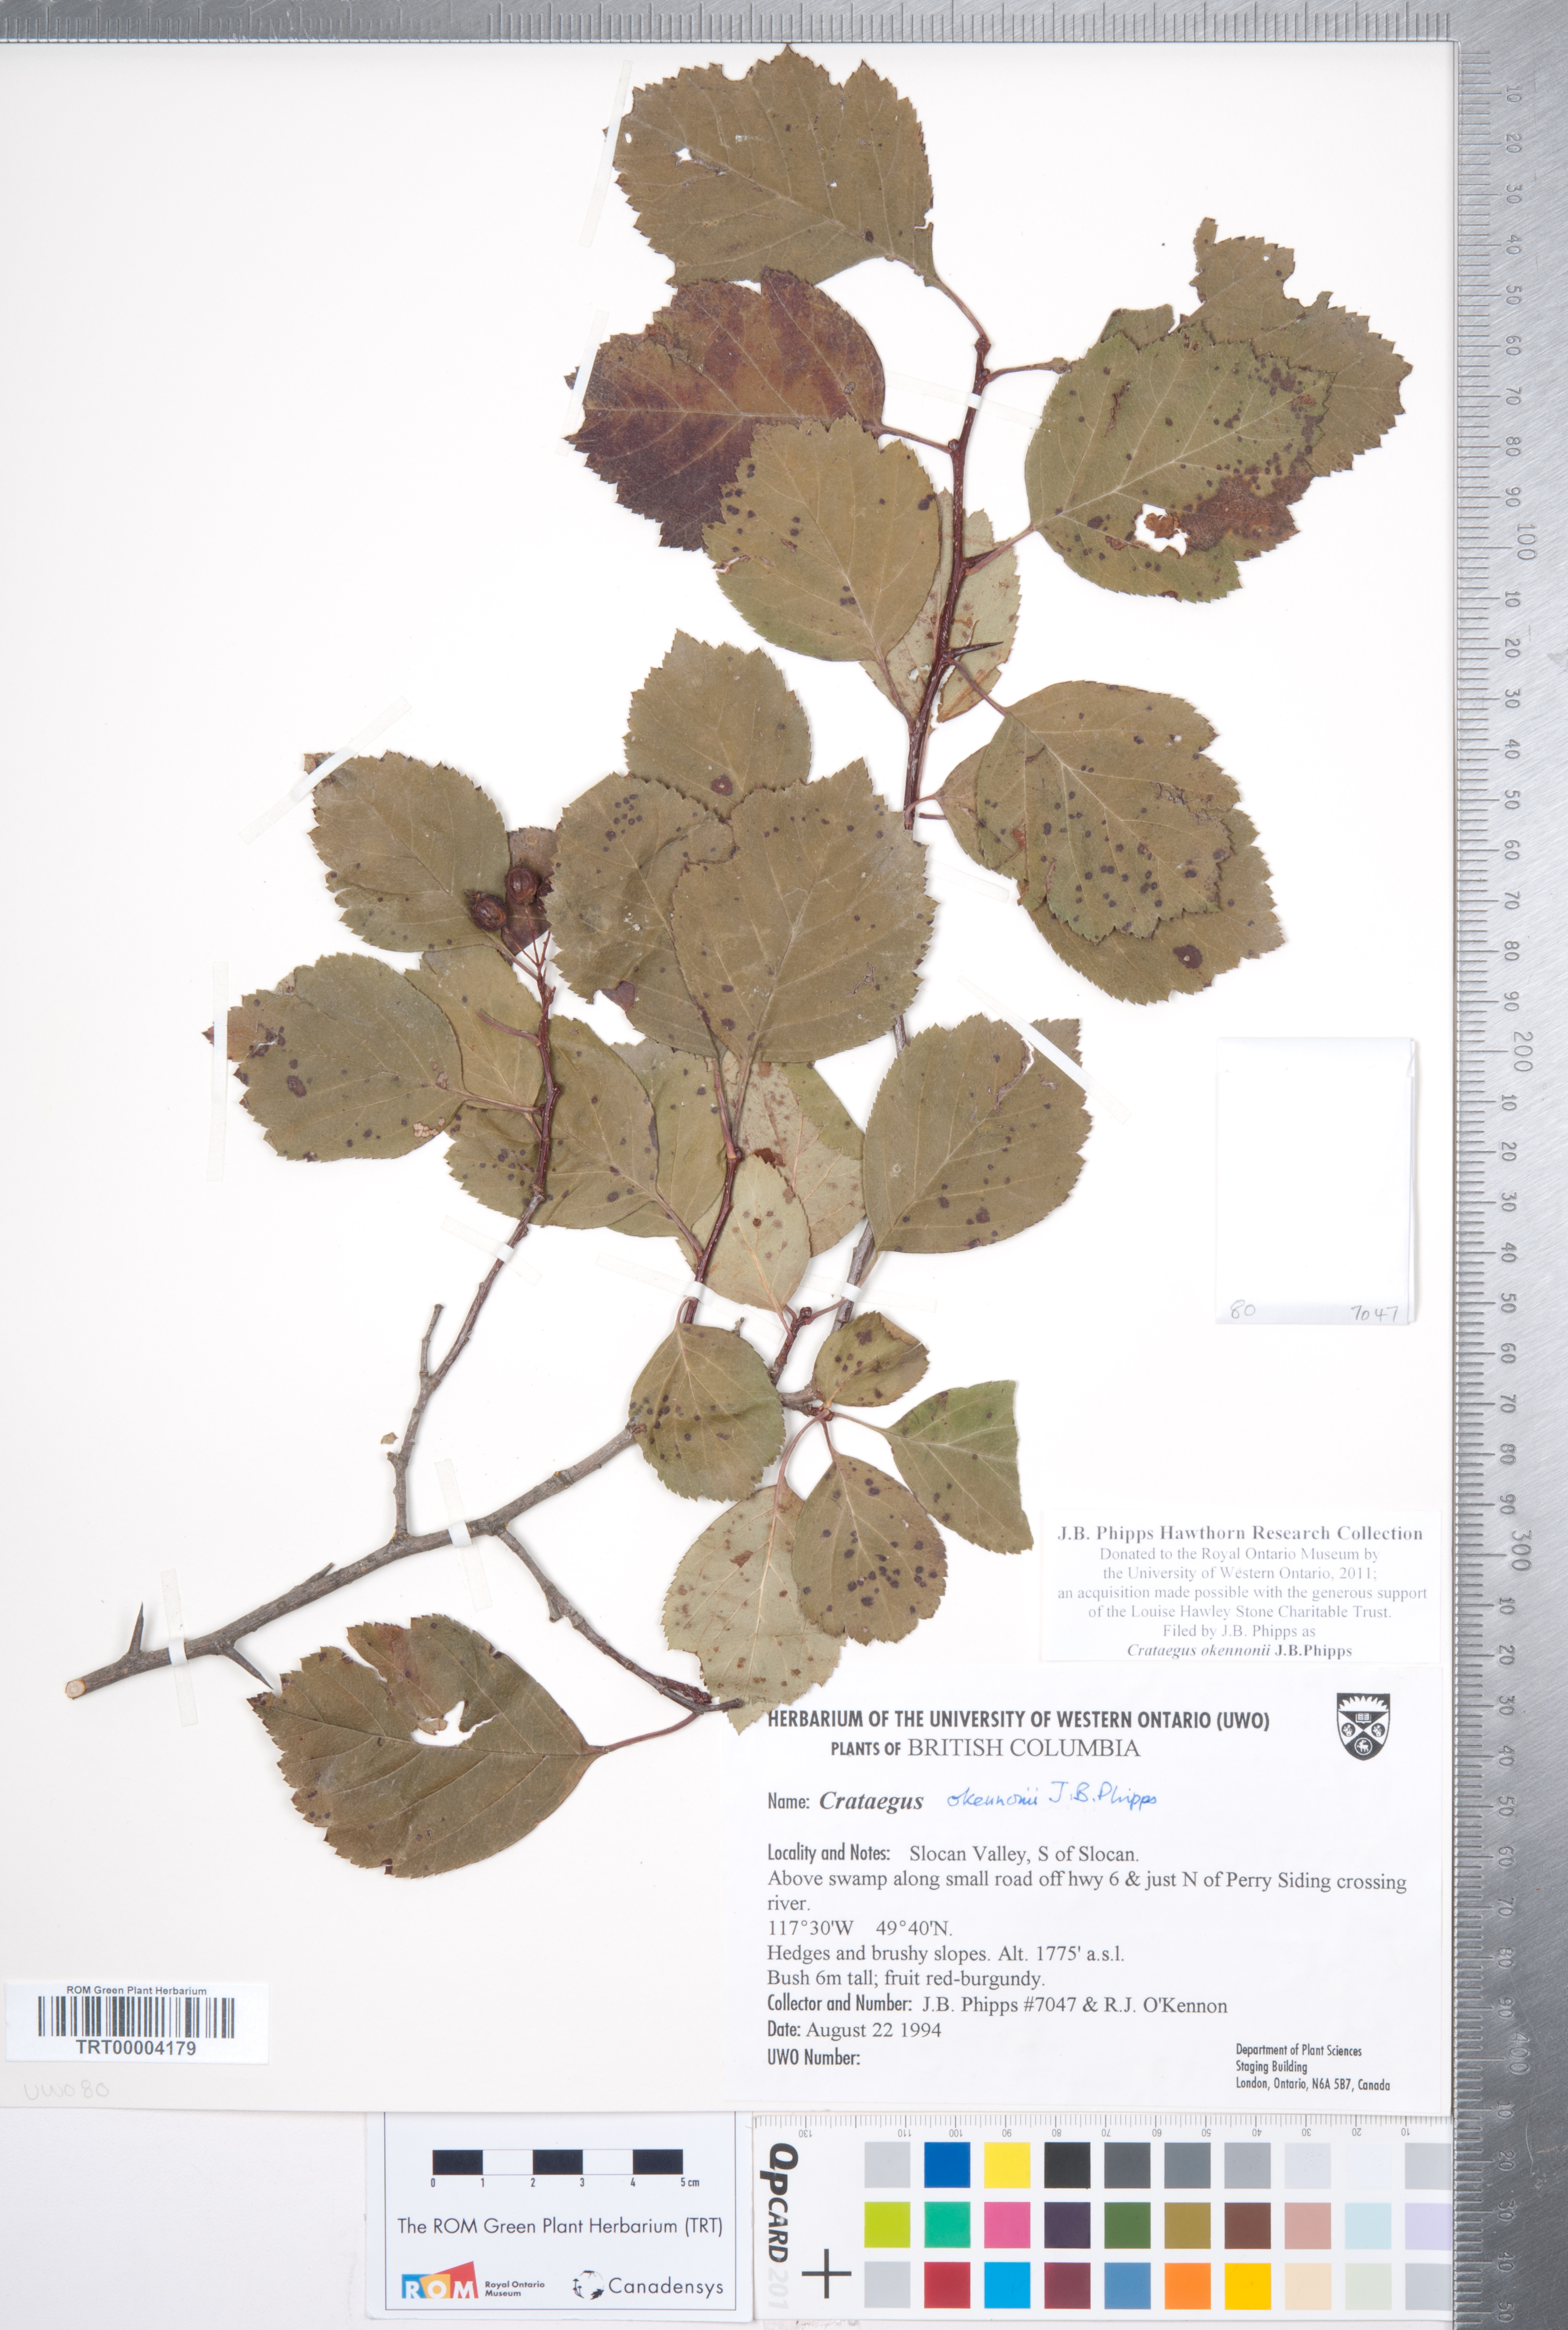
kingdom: Plantae
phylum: Tracheophyta
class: Magnoliopsida
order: Rosales
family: Rosaceae
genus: Crataegus
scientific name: Crataegus okennonii
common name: O'kennon's hawthorn
